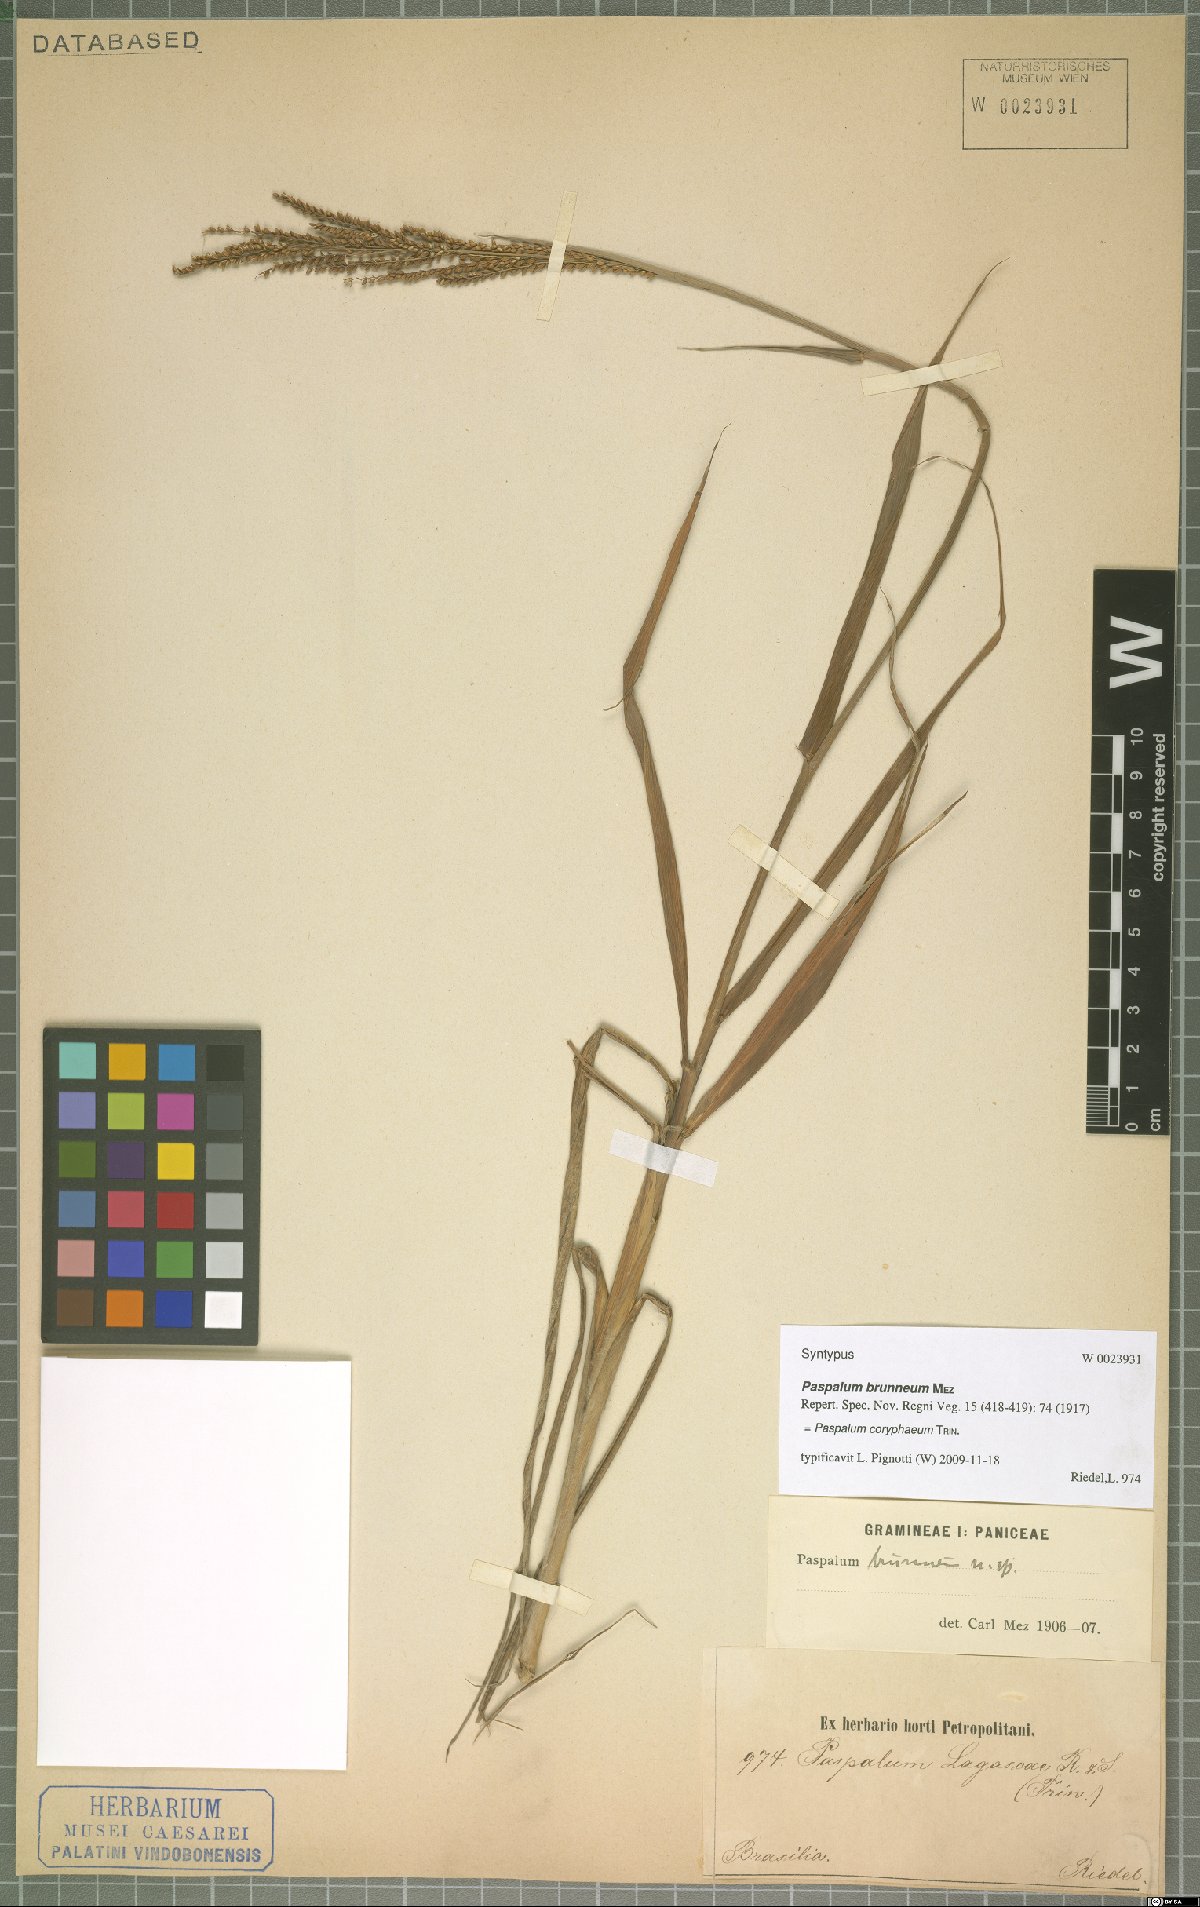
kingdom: Plantae
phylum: Tracheophyta
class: Liliopsida
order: Poales
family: Poaceae
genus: Paspalum
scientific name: Paspalum coryphaeum
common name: Emperor crowngrass
